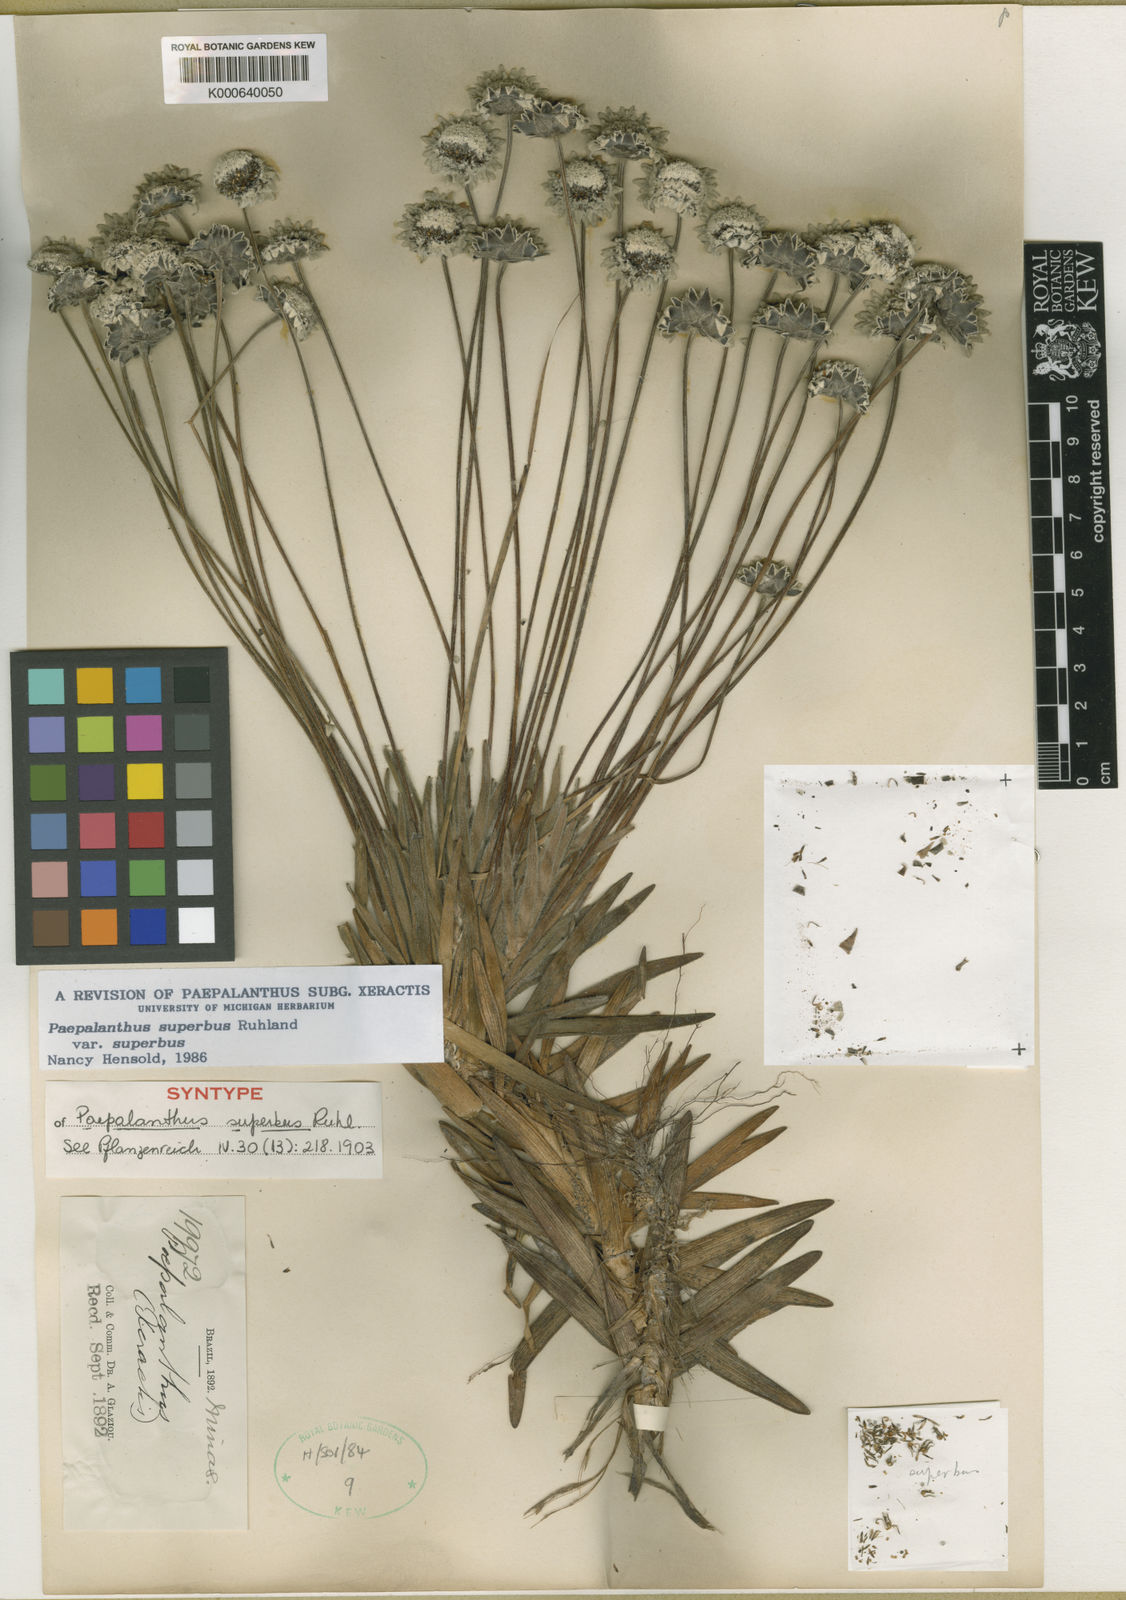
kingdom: Plantae
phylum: Tracheophyta
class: Liliopsida
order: Poales
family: Eriocaulaceae
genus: Paepalanthus
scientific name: Paepalanthus superbus
